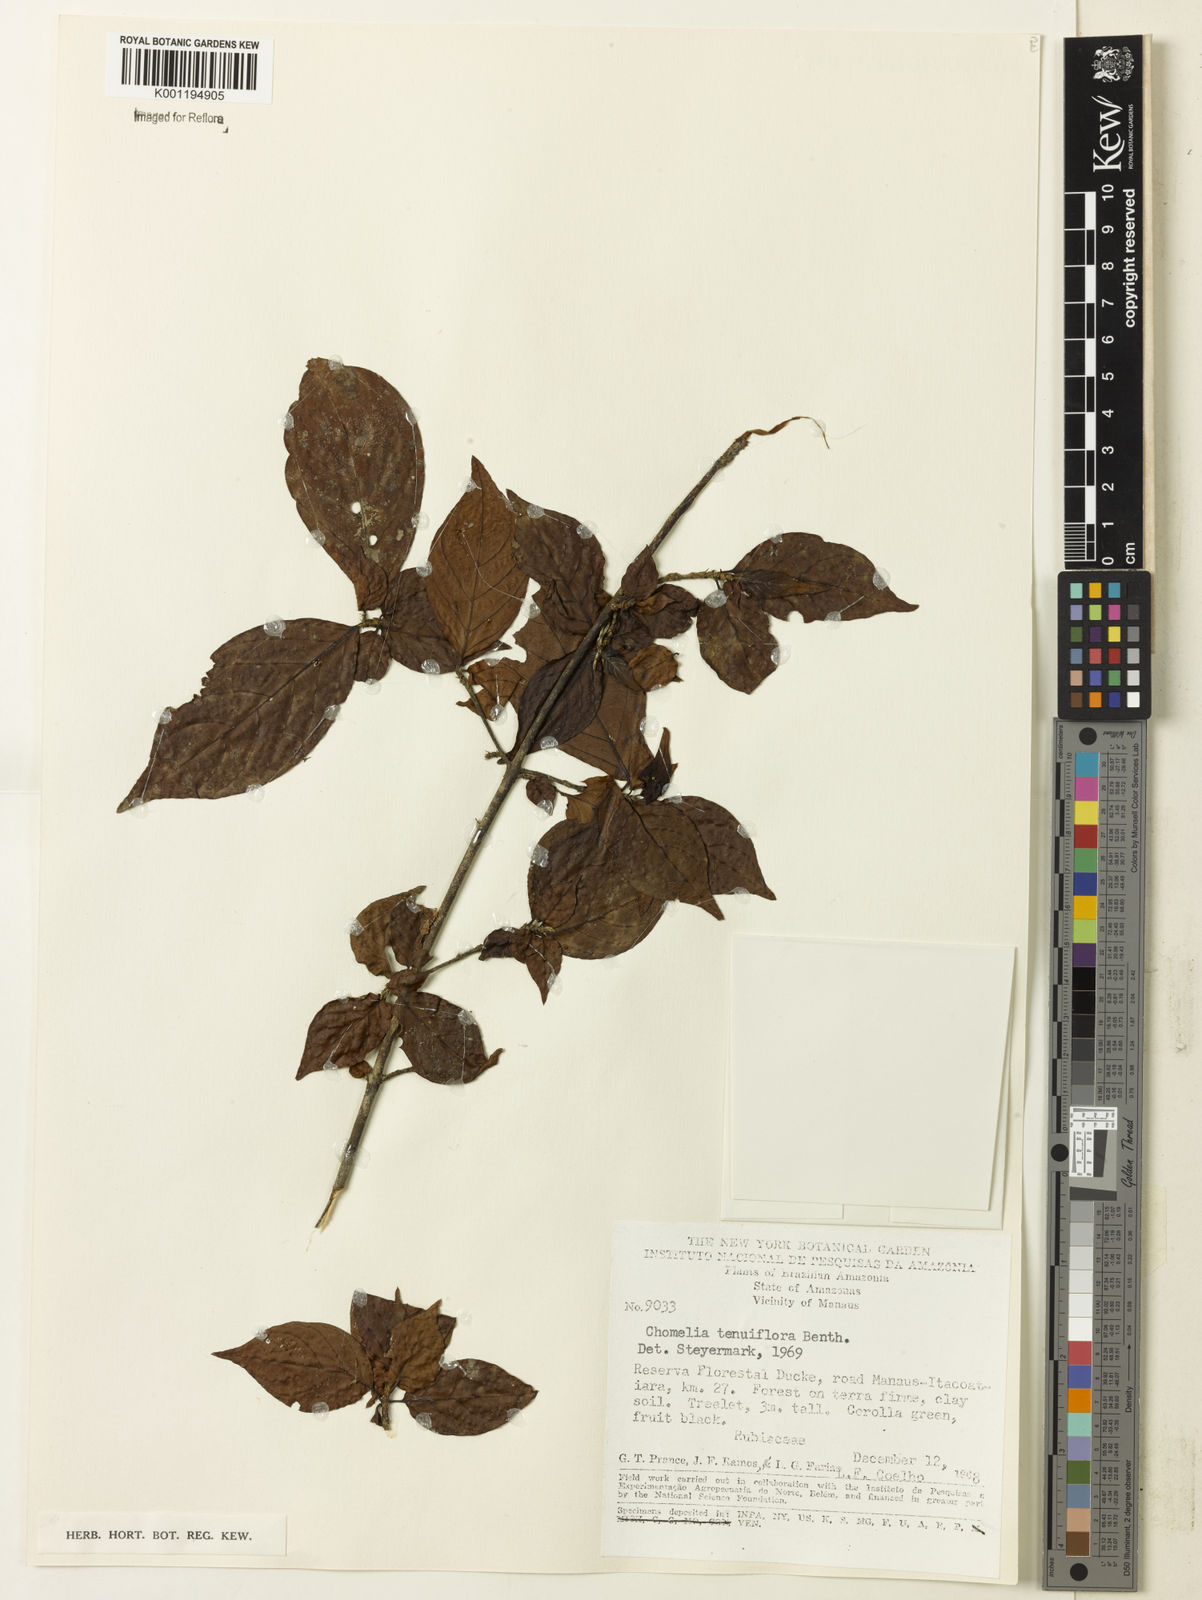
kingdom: Plantae
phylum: Tracheophyta
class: Magnoliopsida
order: Gentianales
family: Rubiaceae
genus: Chomelia
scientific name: Chomelia tenuiflora
